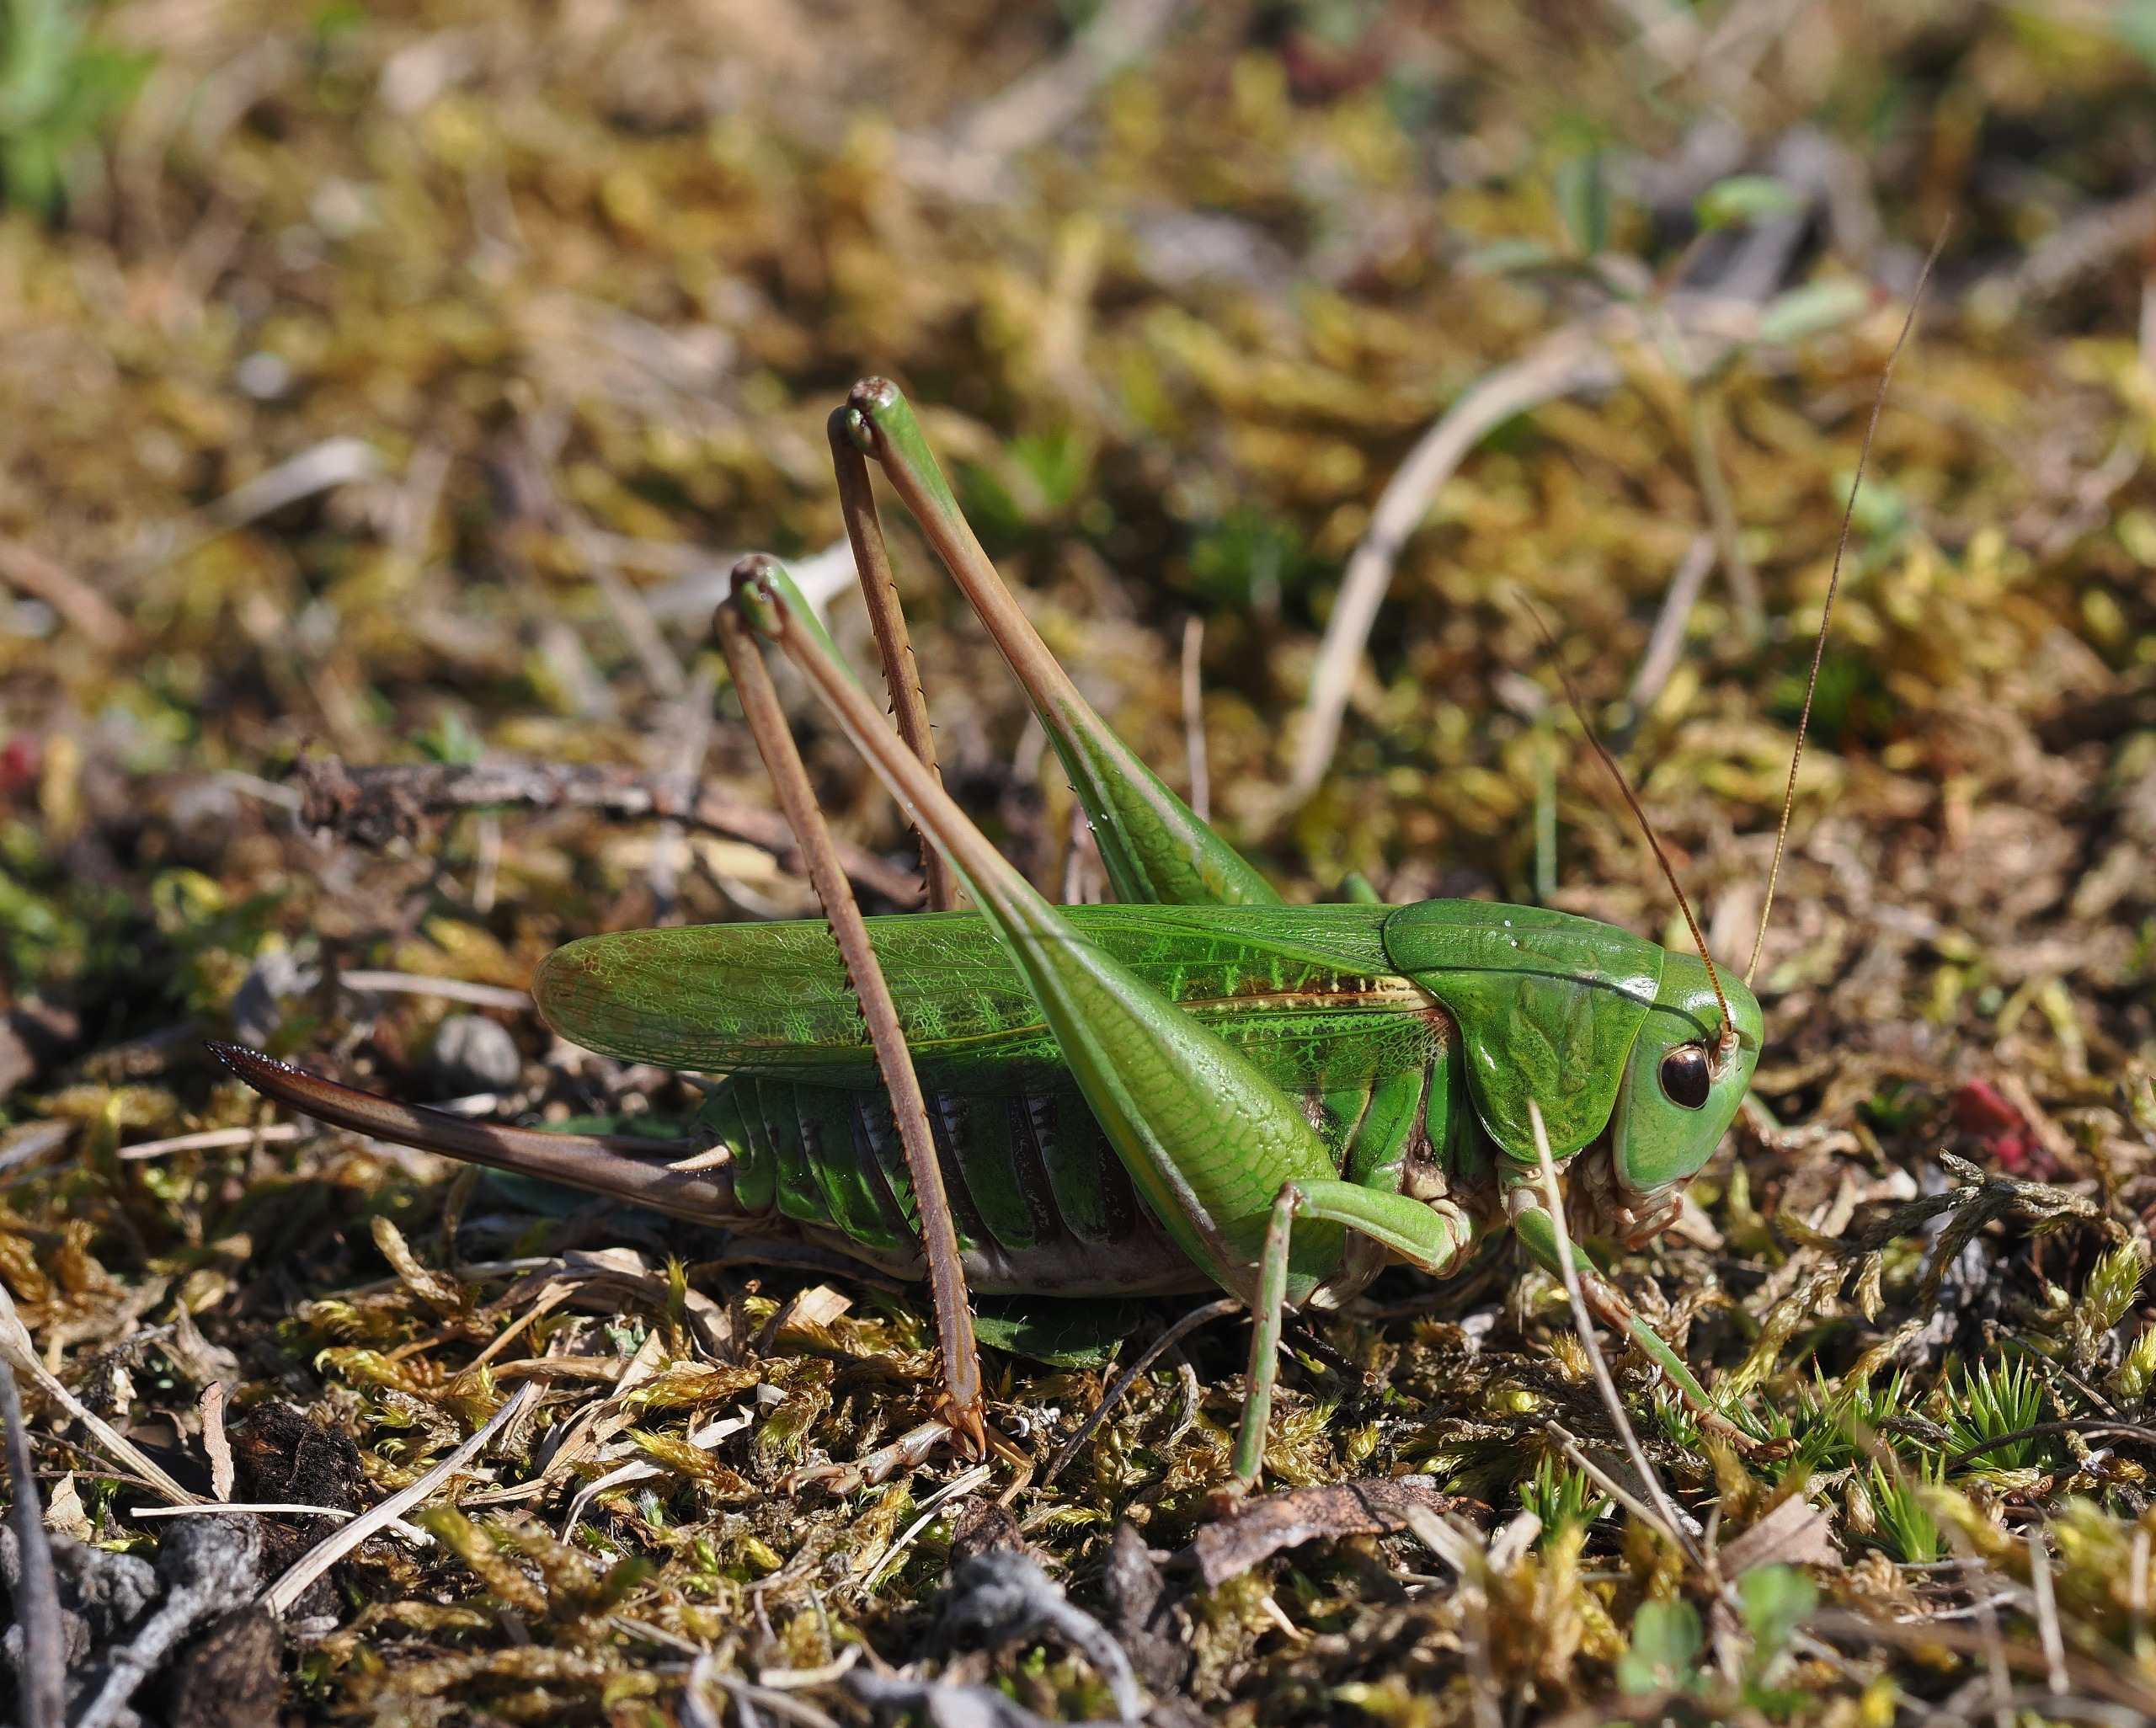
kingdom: Animalia
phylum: Arthropoda
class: Insecta
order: Orthoptera
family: Tettigoniidae
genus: Decticus
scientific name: Decticus verrucivorus
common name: Vortebider
